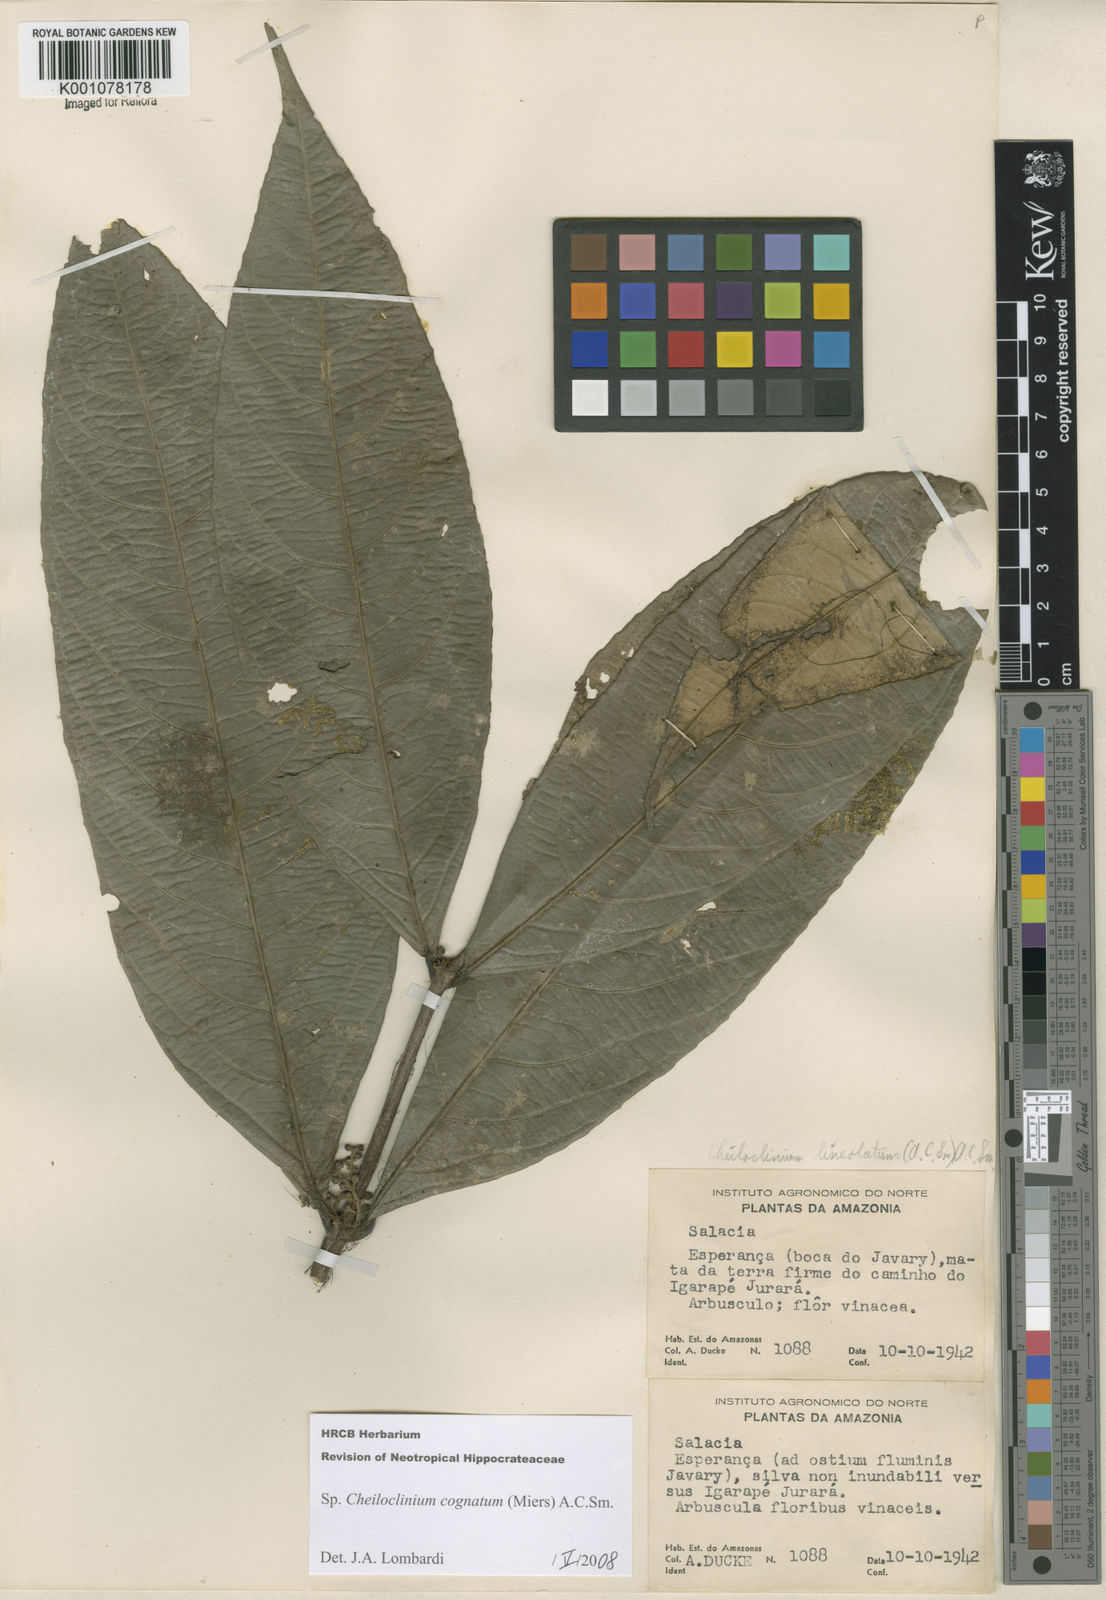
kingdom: Plantae
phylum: Tracheophyta
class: Magnoliopsida
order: Celastrales
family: Celastraceae
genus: Cheiloclinium
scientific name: Cheiloclinium cognatum
